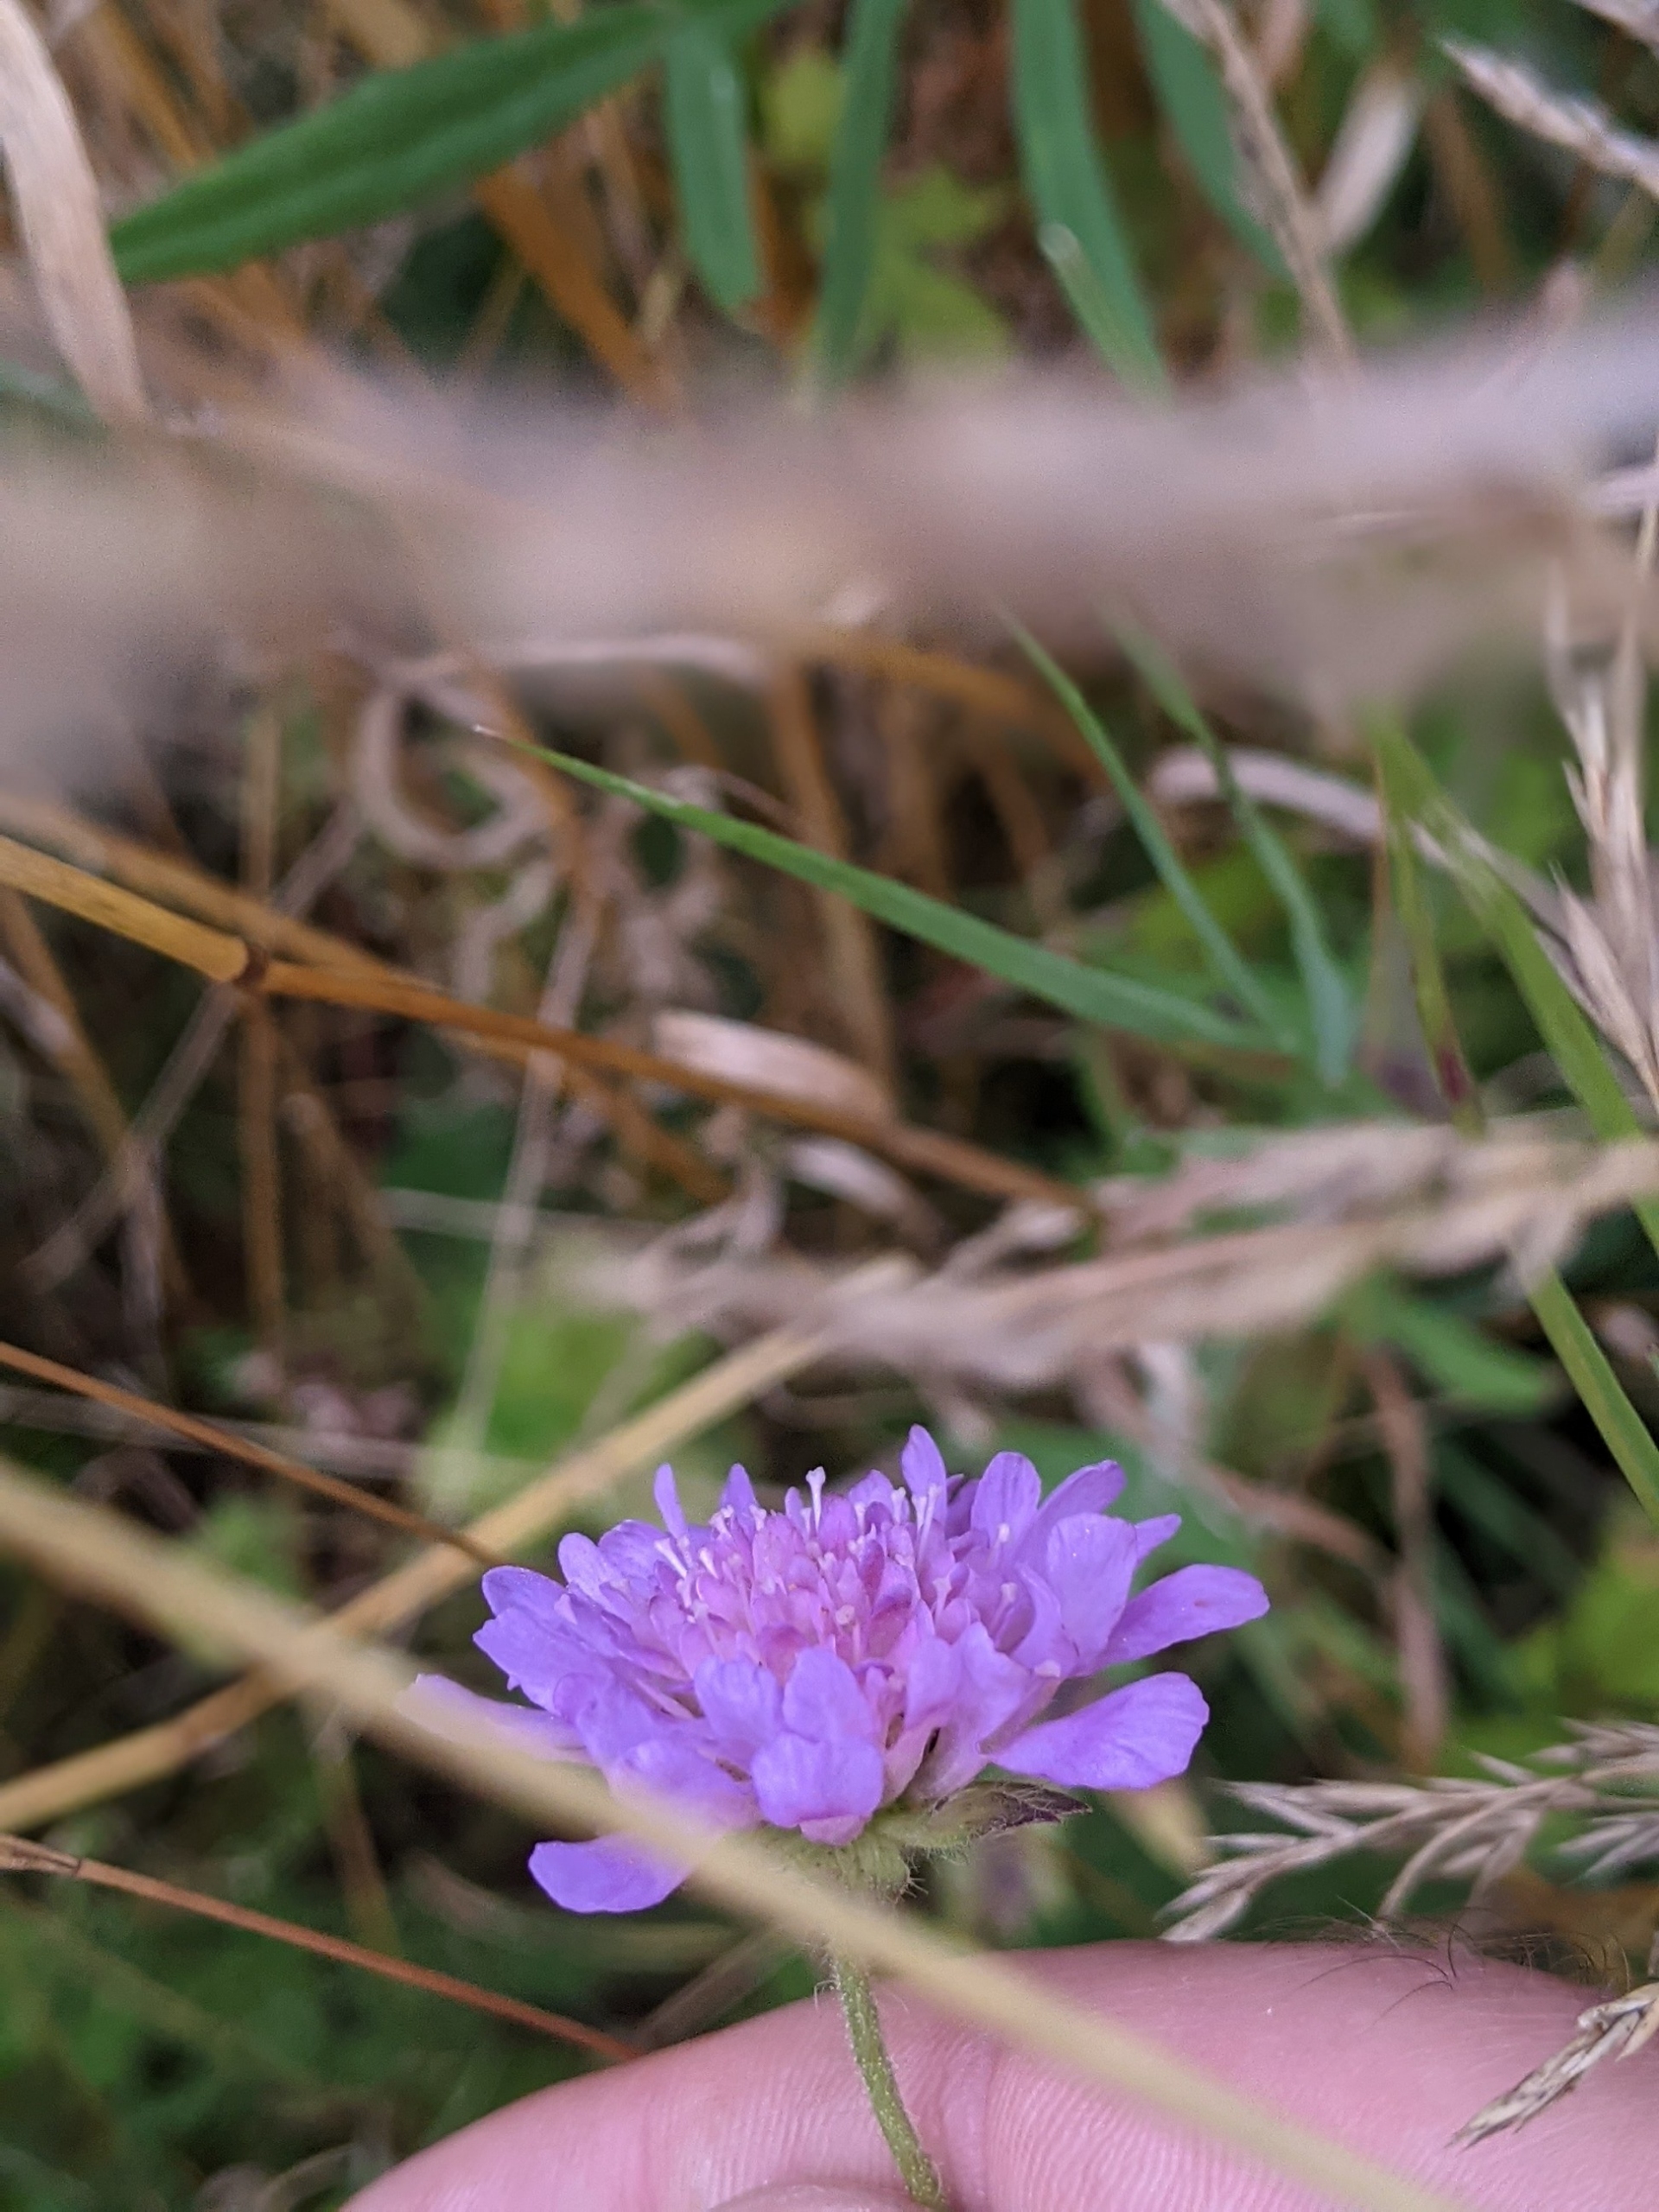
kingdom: Plantae
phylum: Tracheophyta
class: Magnoliopsida
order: Dipsacales
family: Caprifoliaceae
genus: Knautia
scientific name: Knautia arvensis
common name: Blåhat
